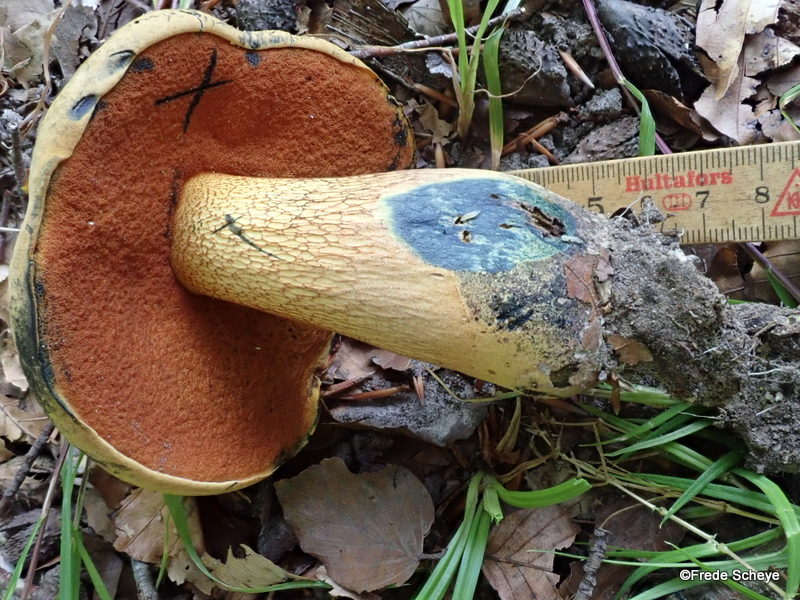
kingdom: Fungi
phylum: Basidiomycota
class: Agaricomycetes
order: Boletales
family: Boletaceae
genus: Suillellus
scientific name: Suillellus luridus
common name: netstokket indigorørhat
